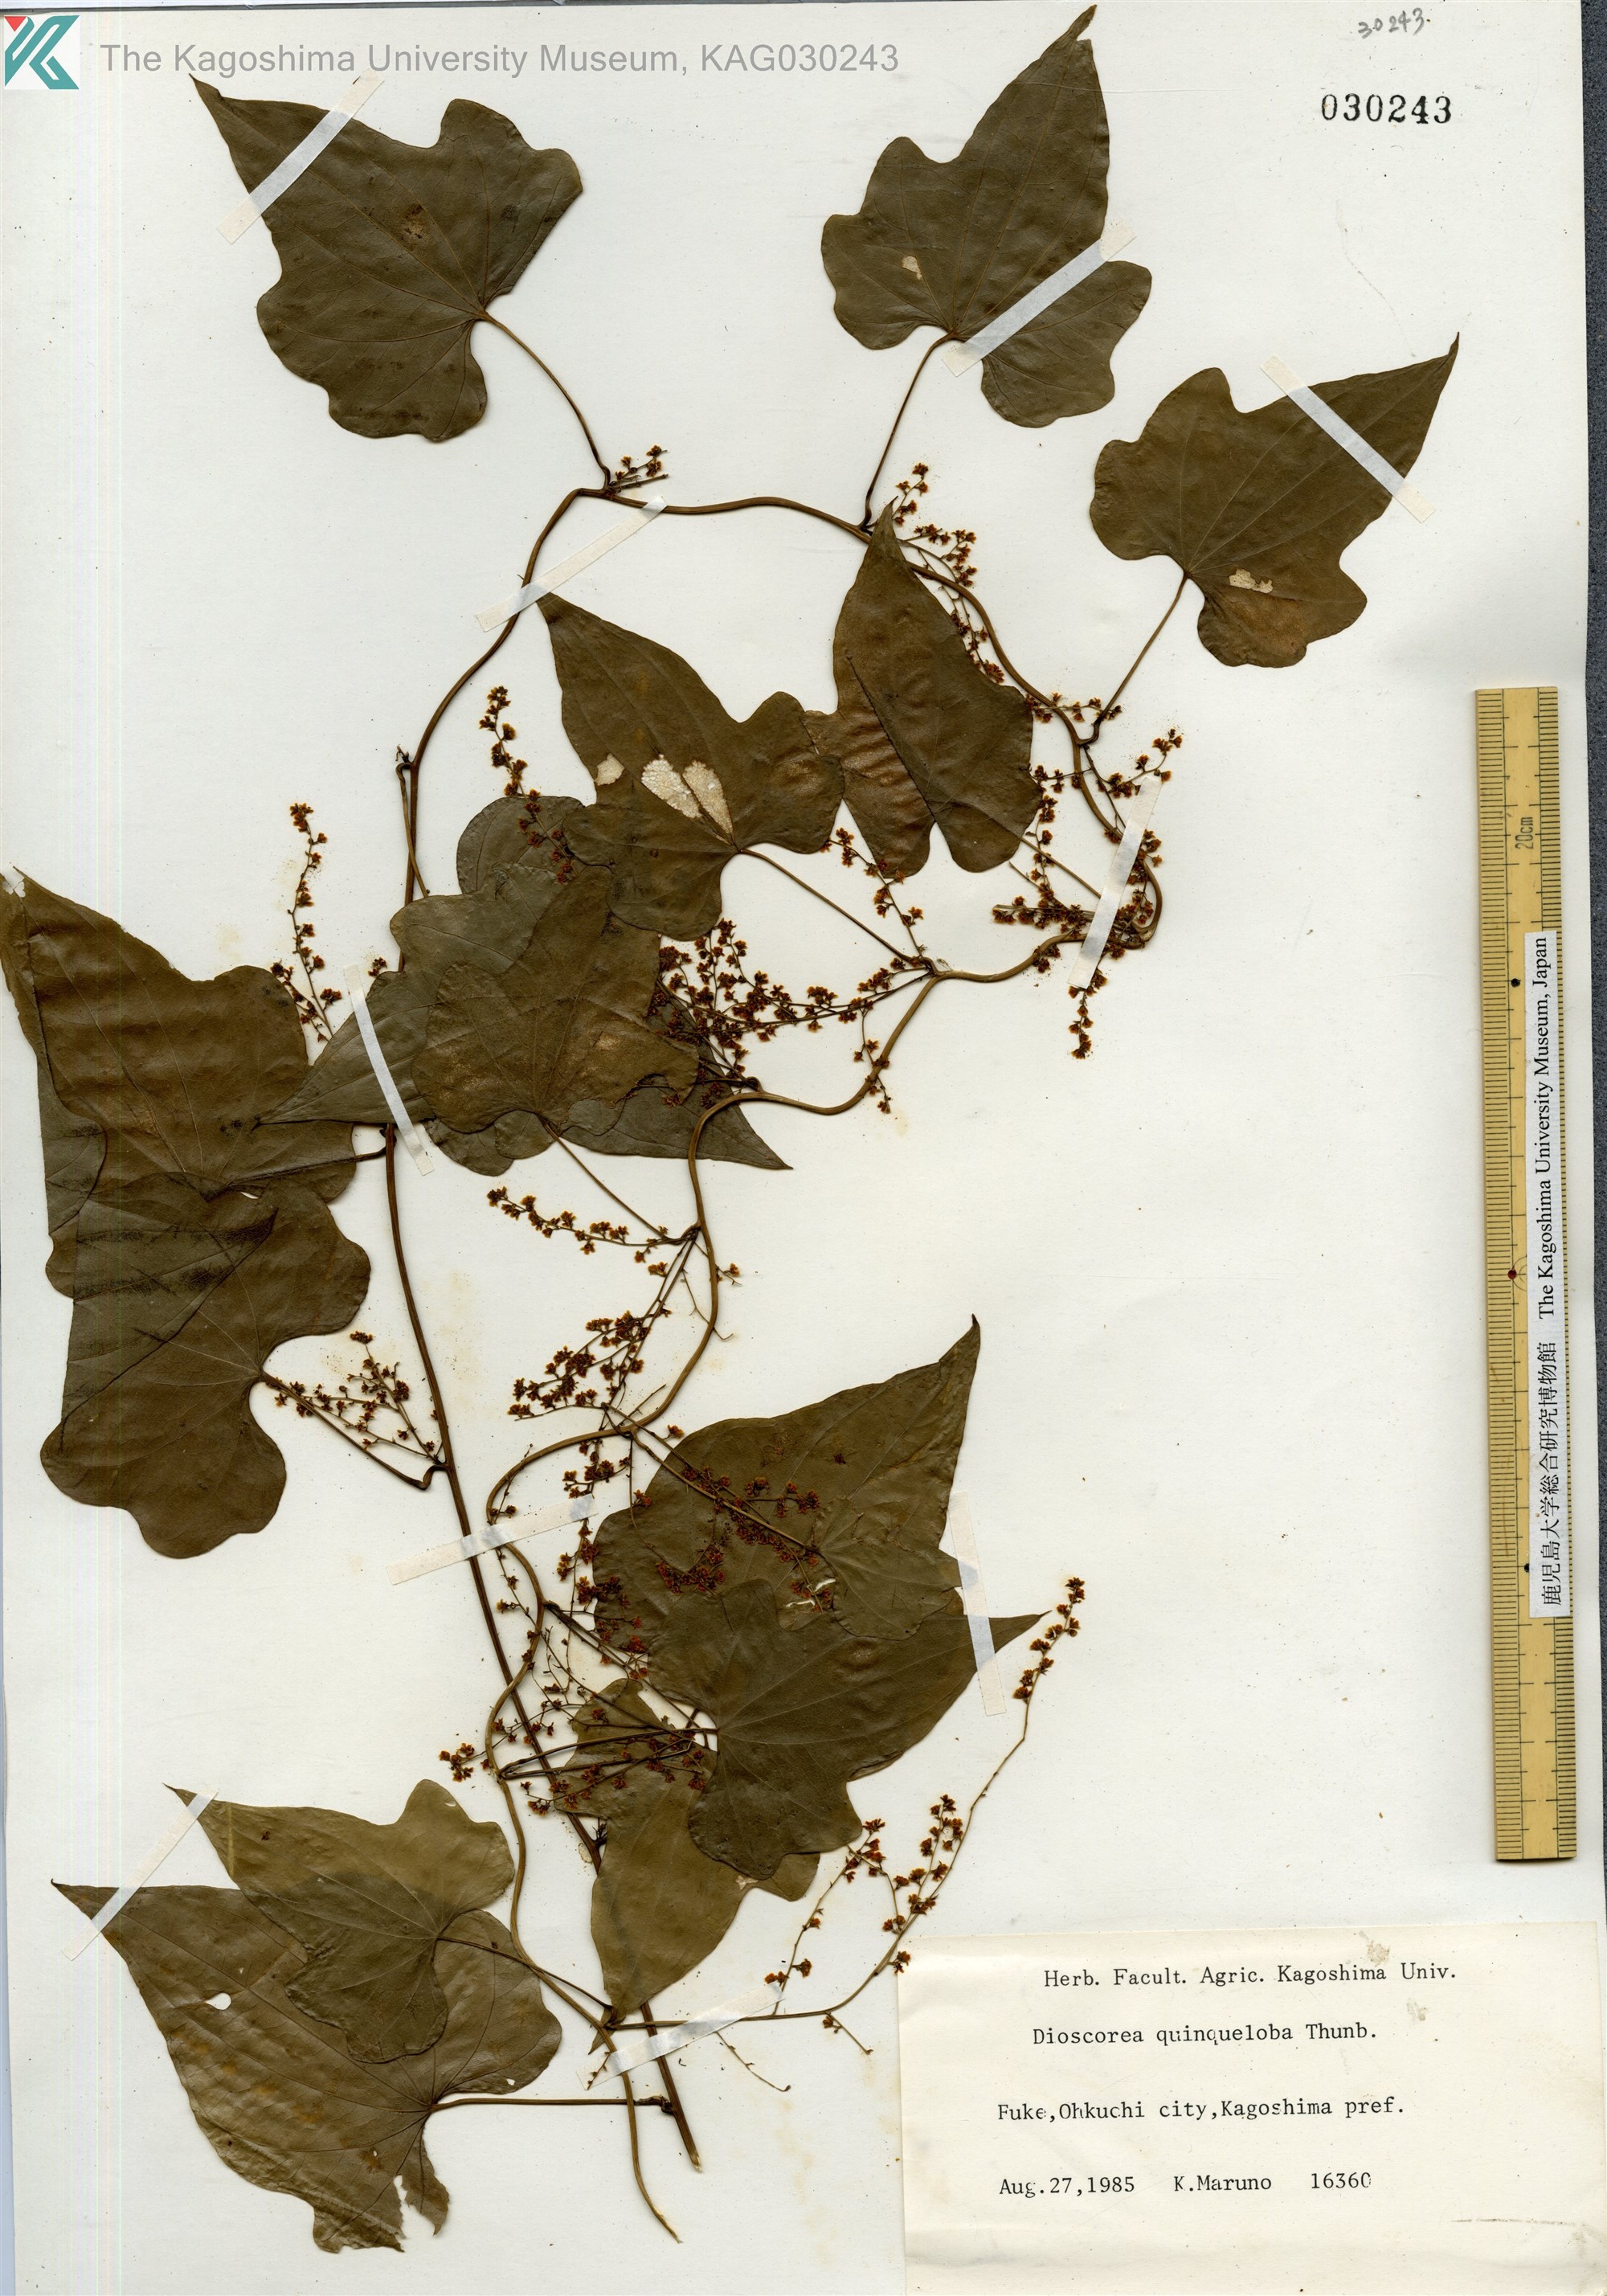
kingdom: Plantae
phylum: Tracheophyta
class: Liliopsida
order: Dioscoreales
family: Dioscoreaceae
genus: Dioscorea
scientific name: Dioscorea quinquelobata
